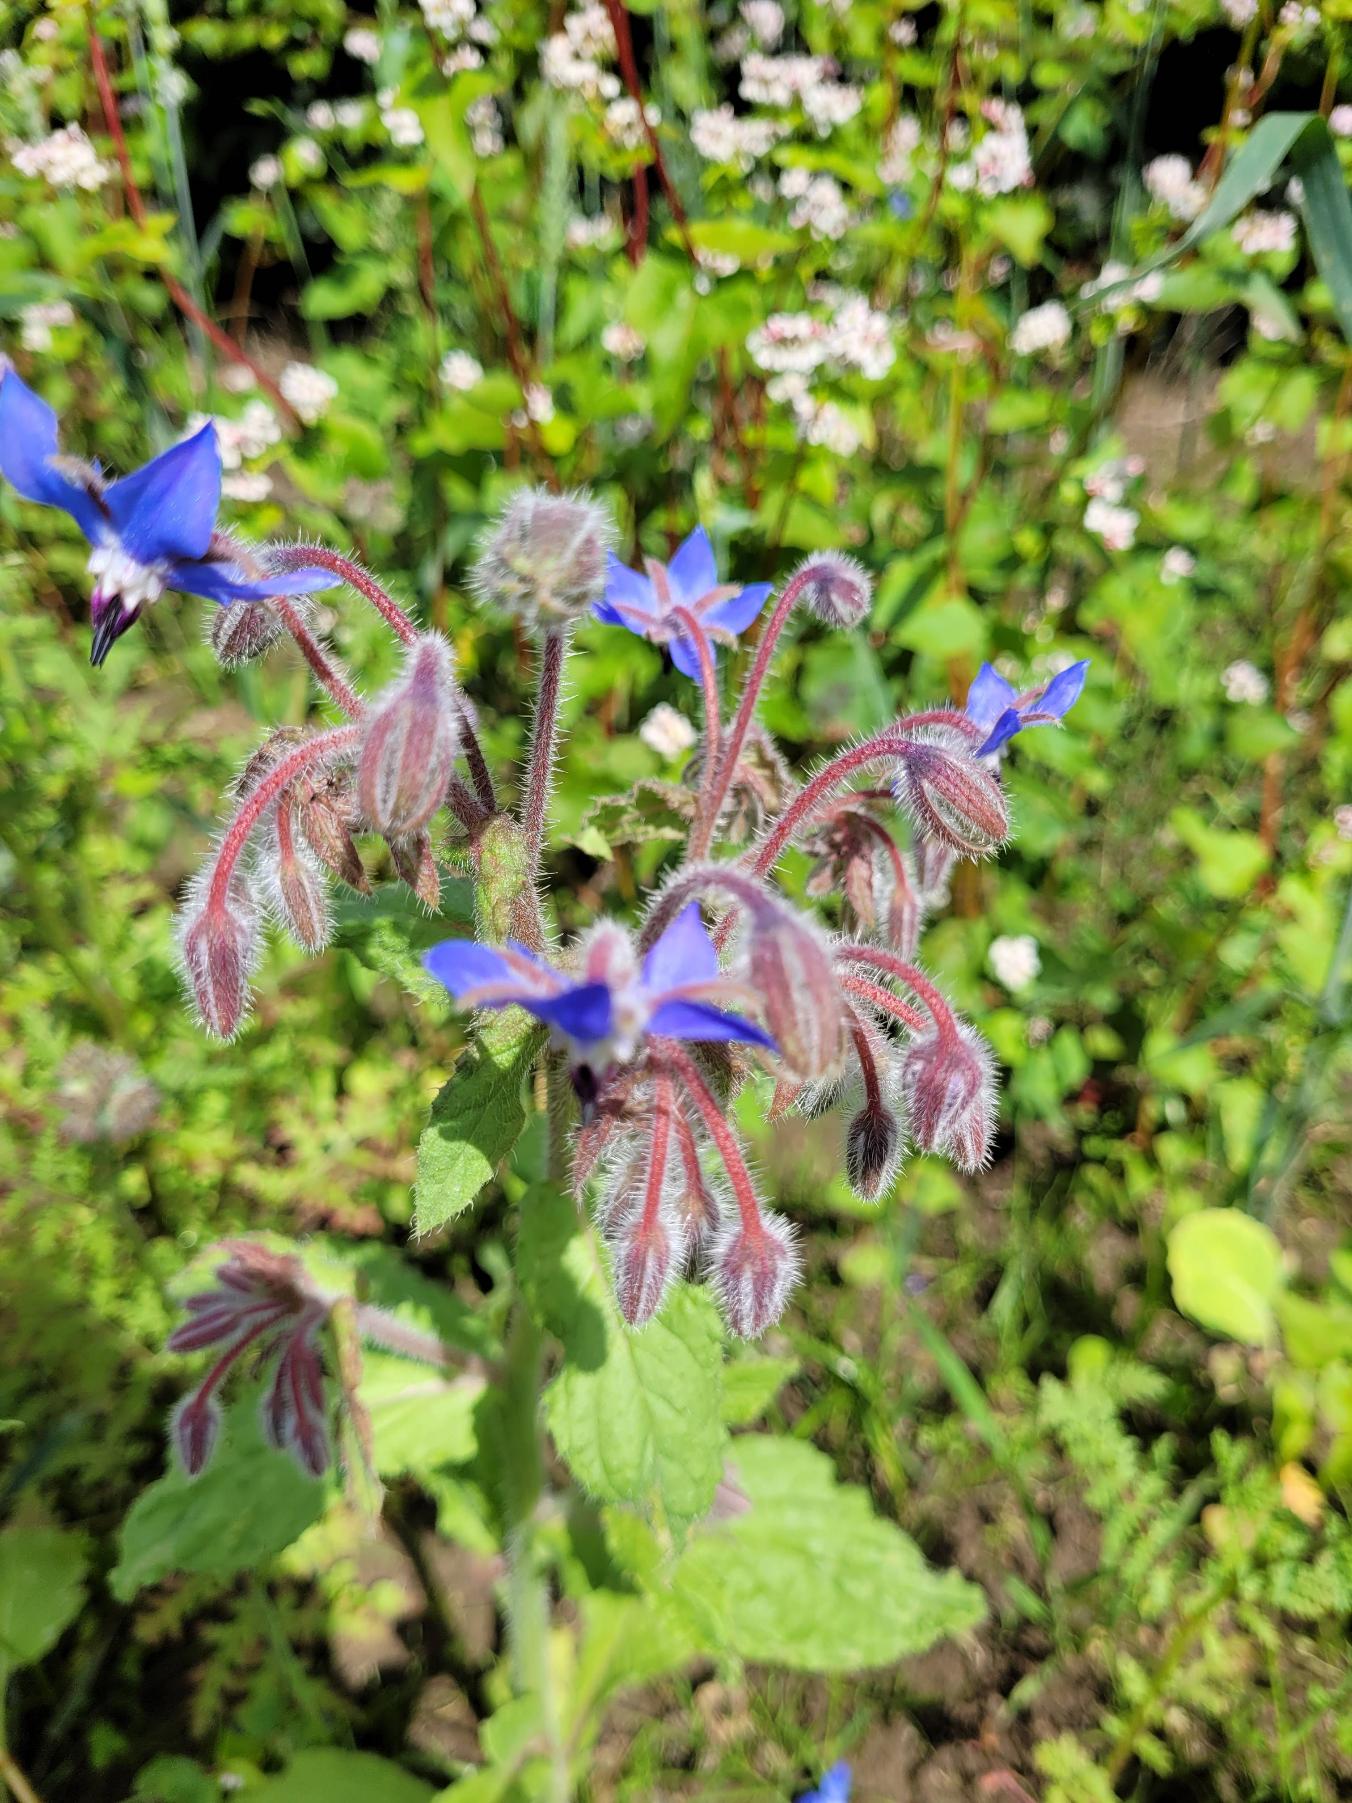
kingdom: Plantae
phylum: Tracheophyta
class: Magnoliopsida
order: Boraginales
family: Boraginaceae
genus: Borago
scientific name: Borago officinalis
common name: Hjulkrone
